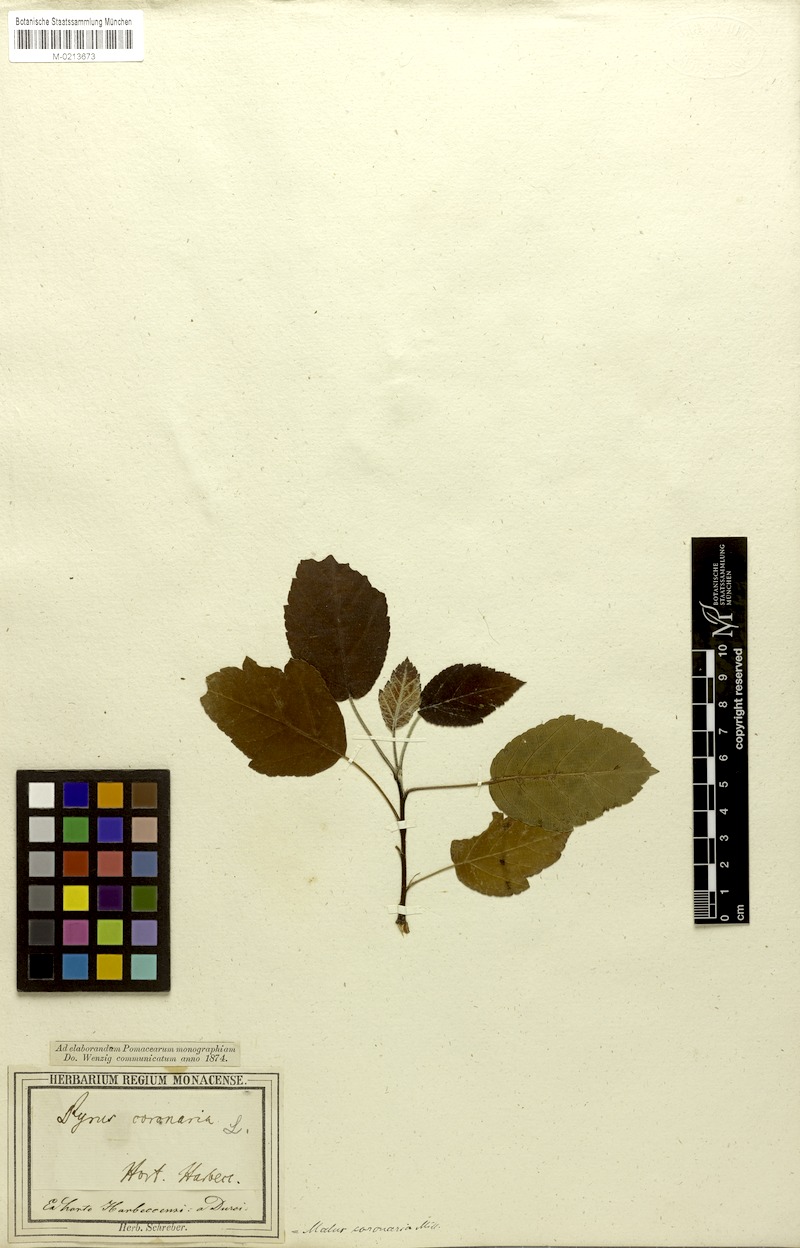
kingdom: Plantae
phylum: Tracheophyta
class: Magnoliopsida
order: Rosales
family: Rosaceae
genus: Malus
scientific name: Malus coronaria
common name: Sweet crab apple
